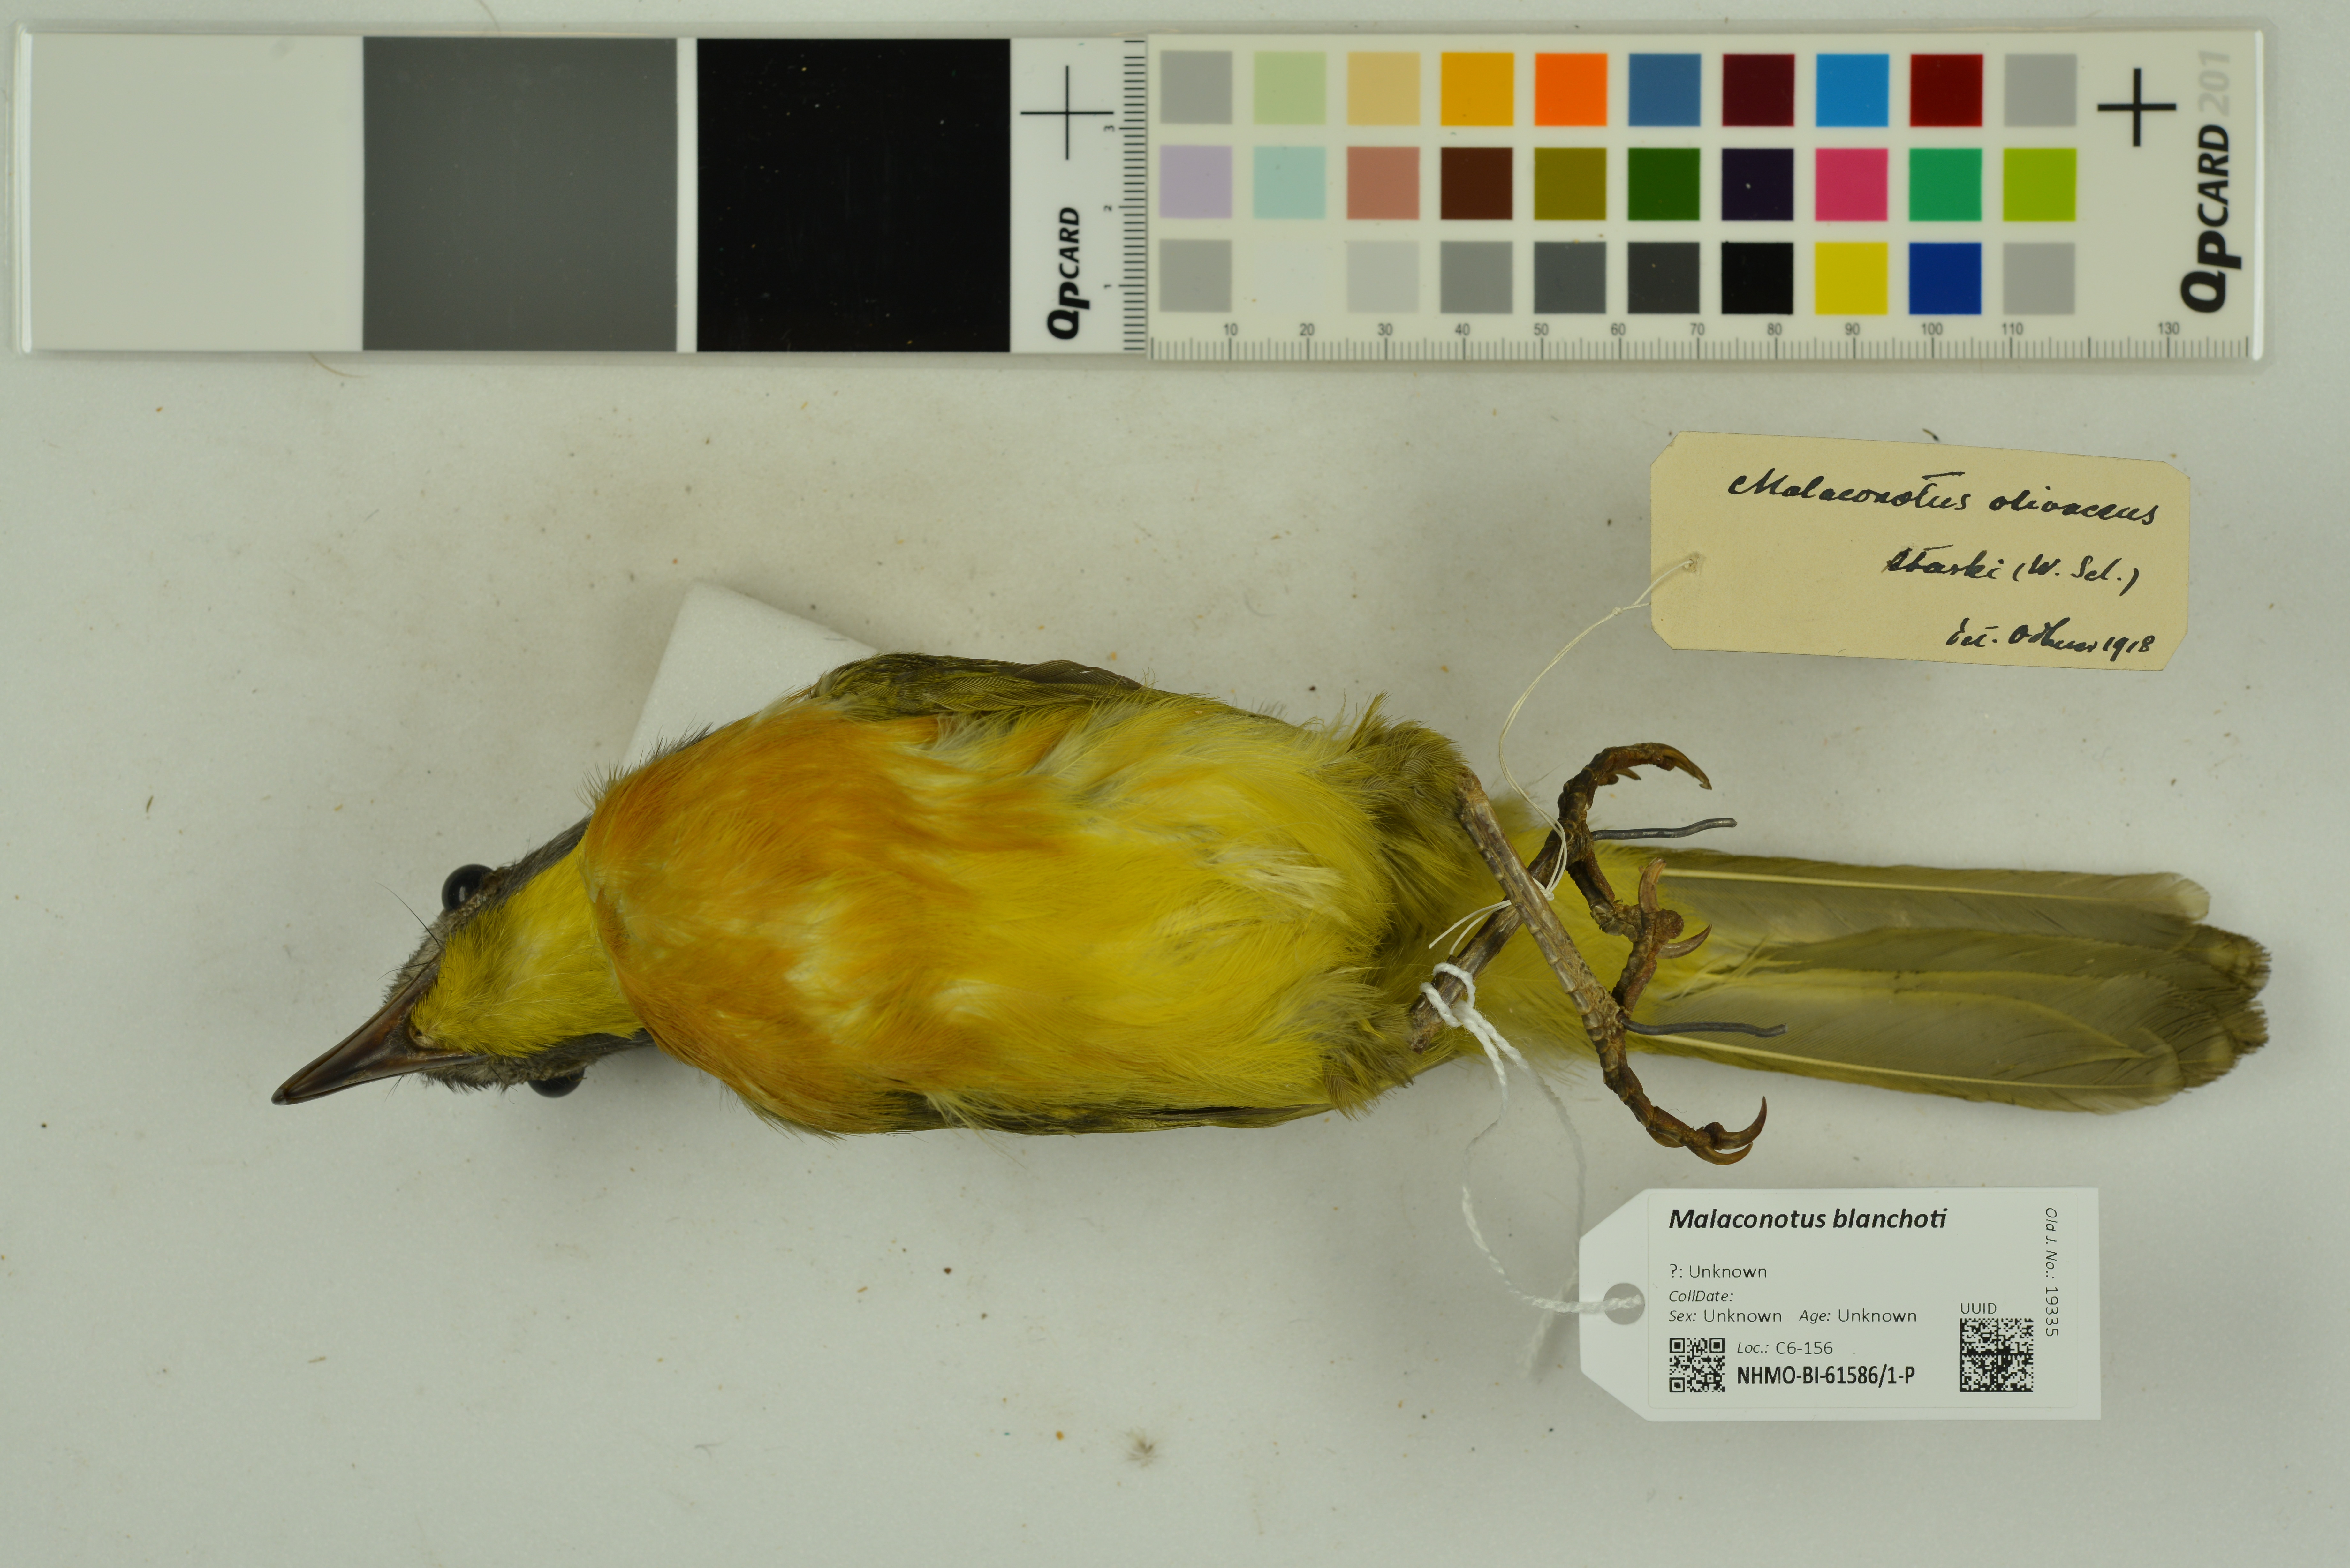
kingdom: Animalia
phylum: Chordata
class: Aves
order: Passeriformes
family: Malaconotidae
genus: Malaconotus
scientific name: Malaconotus blanchoti
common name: Grey-headed bushshrike
